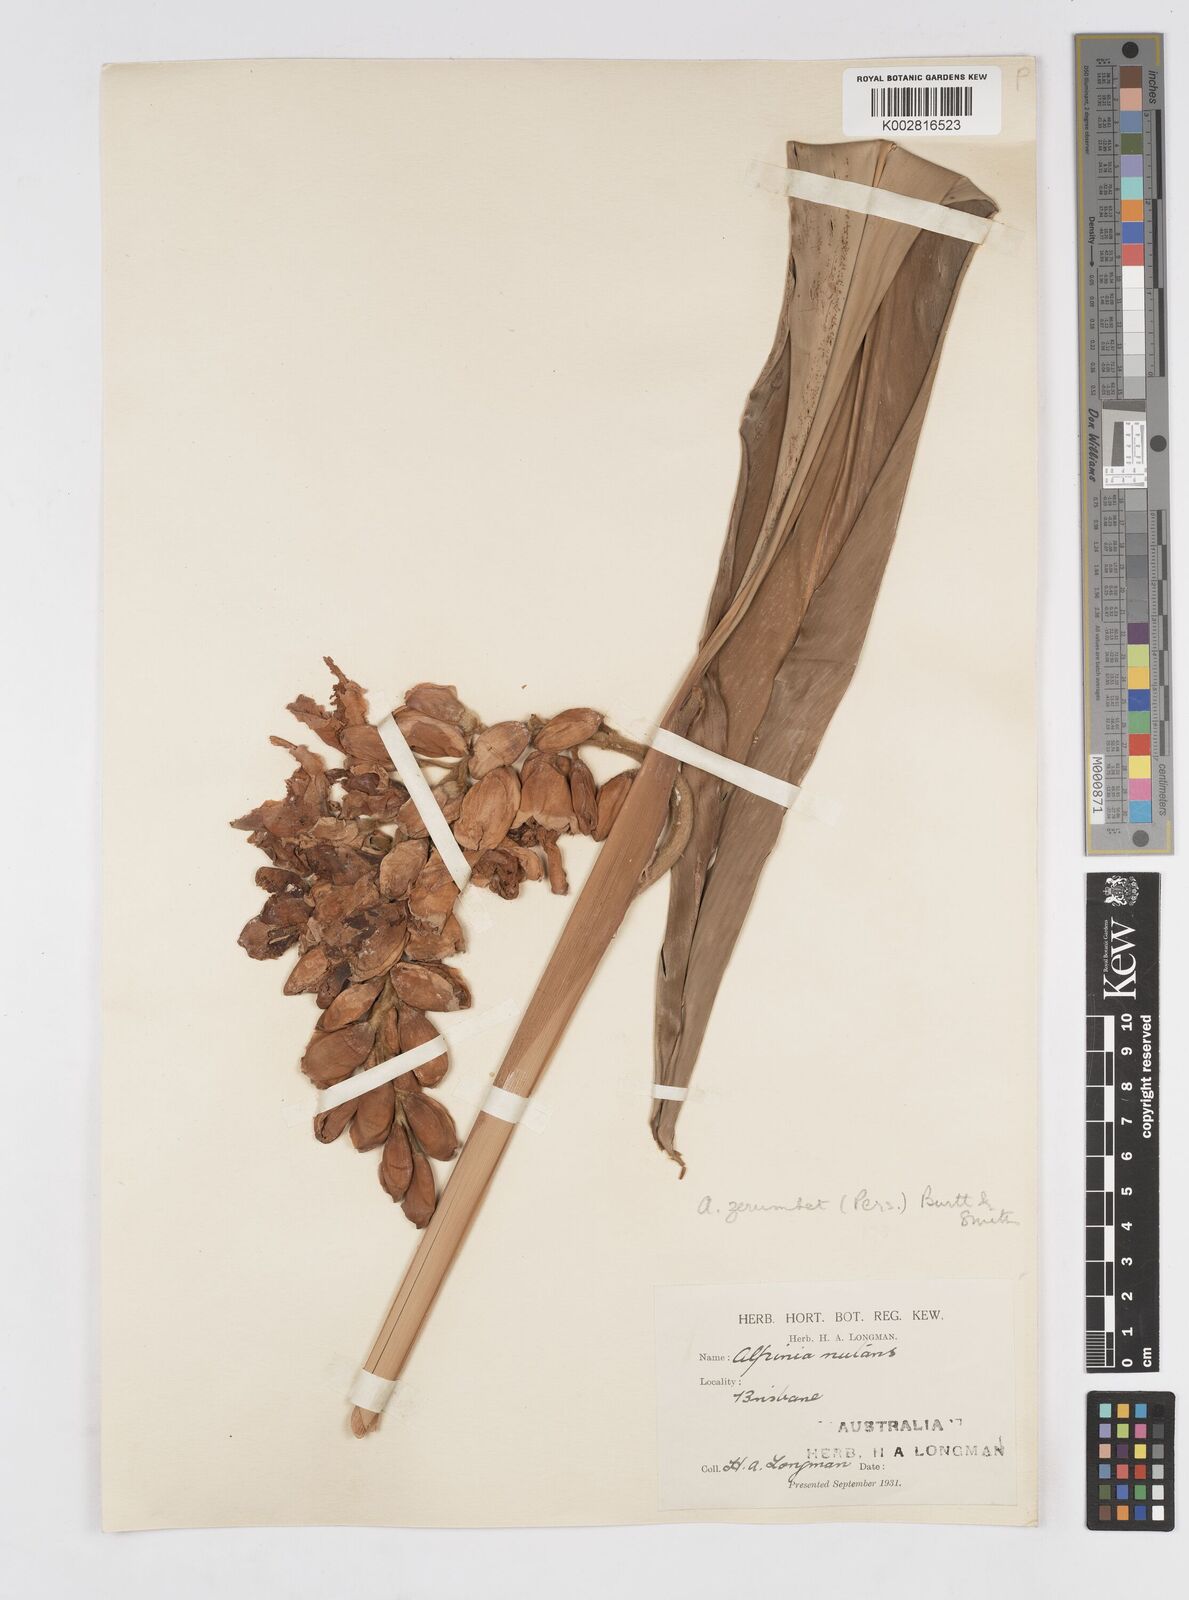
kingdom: Plantae
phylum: Tracheophyta
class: Liliopsida
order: Zingiberales
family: Zingiberaceae
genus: Alpinia
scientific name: Alpinia zerumbet
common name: Shellplant
